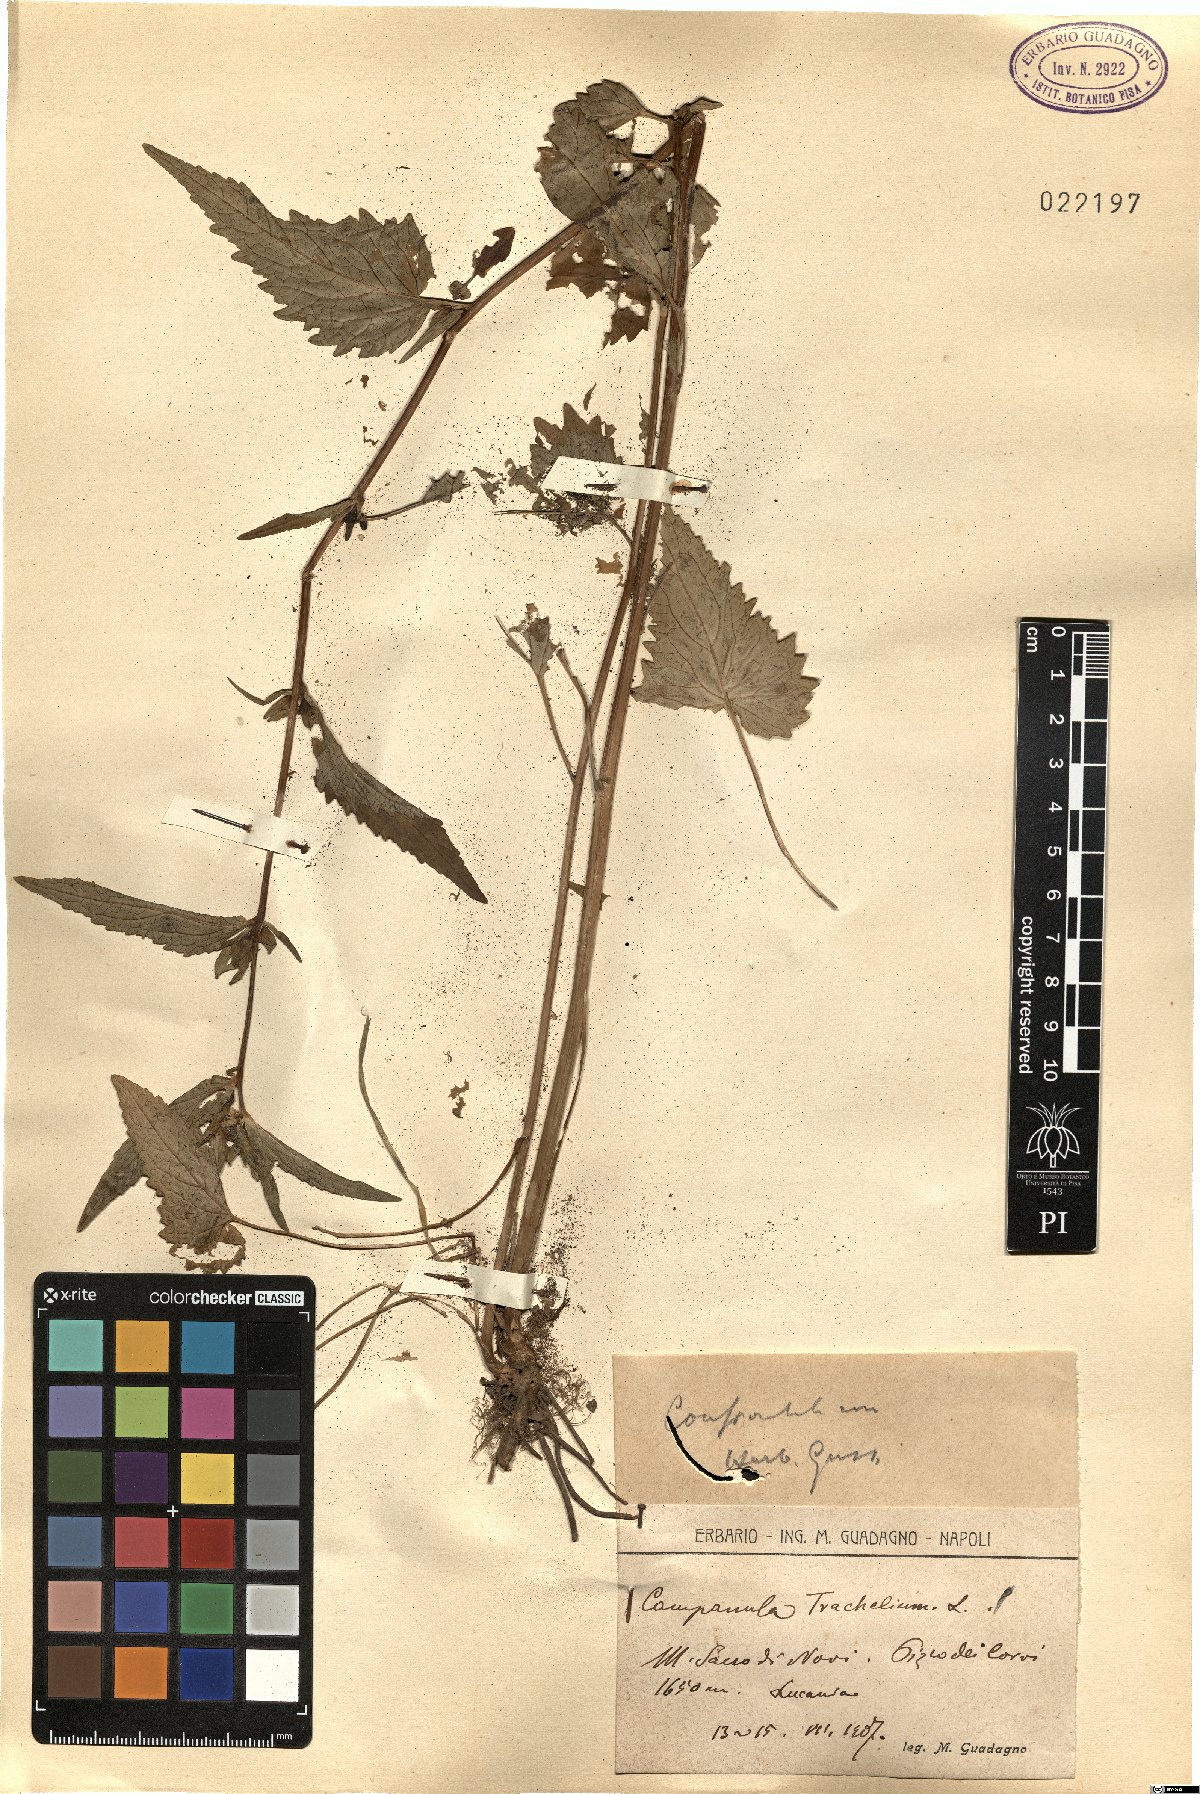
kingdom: Plantae
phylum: Tracheophyta
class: Magnoliopsida
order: Asterales
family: Campanulaceae
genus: Campanula
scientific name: Campanula trachelium
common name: Nettle-leaved bellflower
